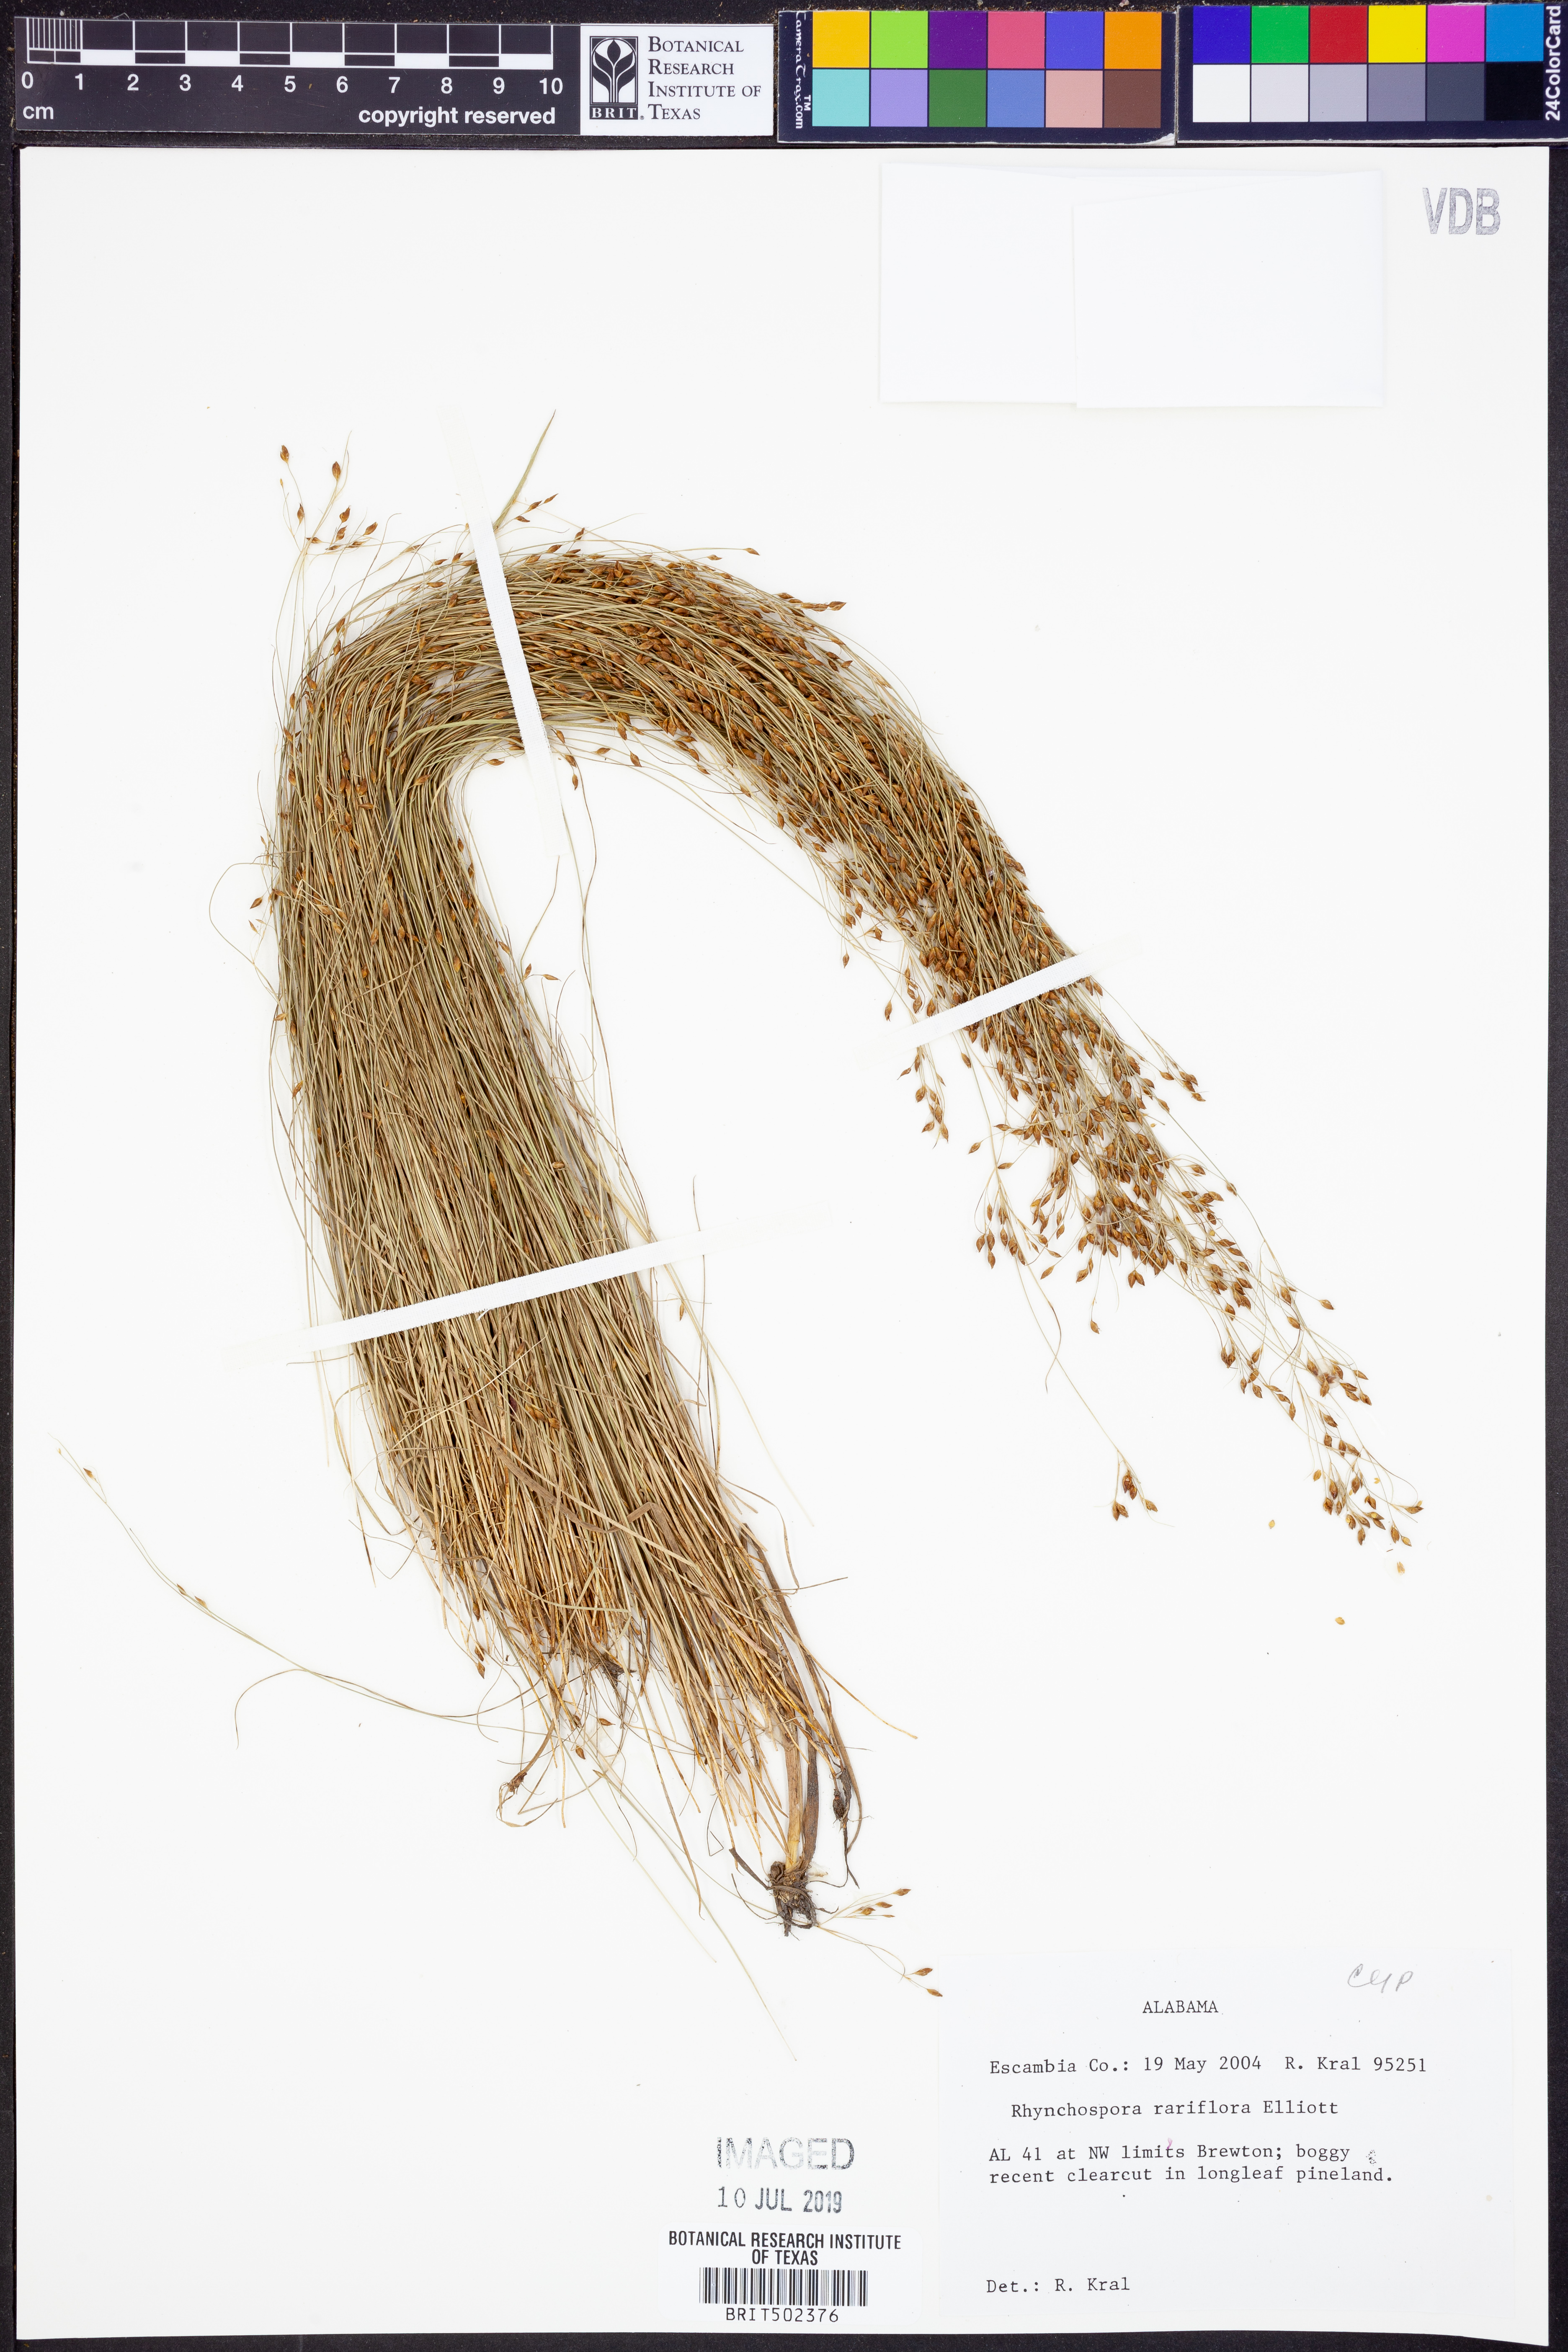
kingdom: Plantae
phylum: Tracheophyta
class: Liliopsida
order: Poales
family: Cyperaceae
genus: Rhynchospora
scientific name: Rhynchospora rariflora
